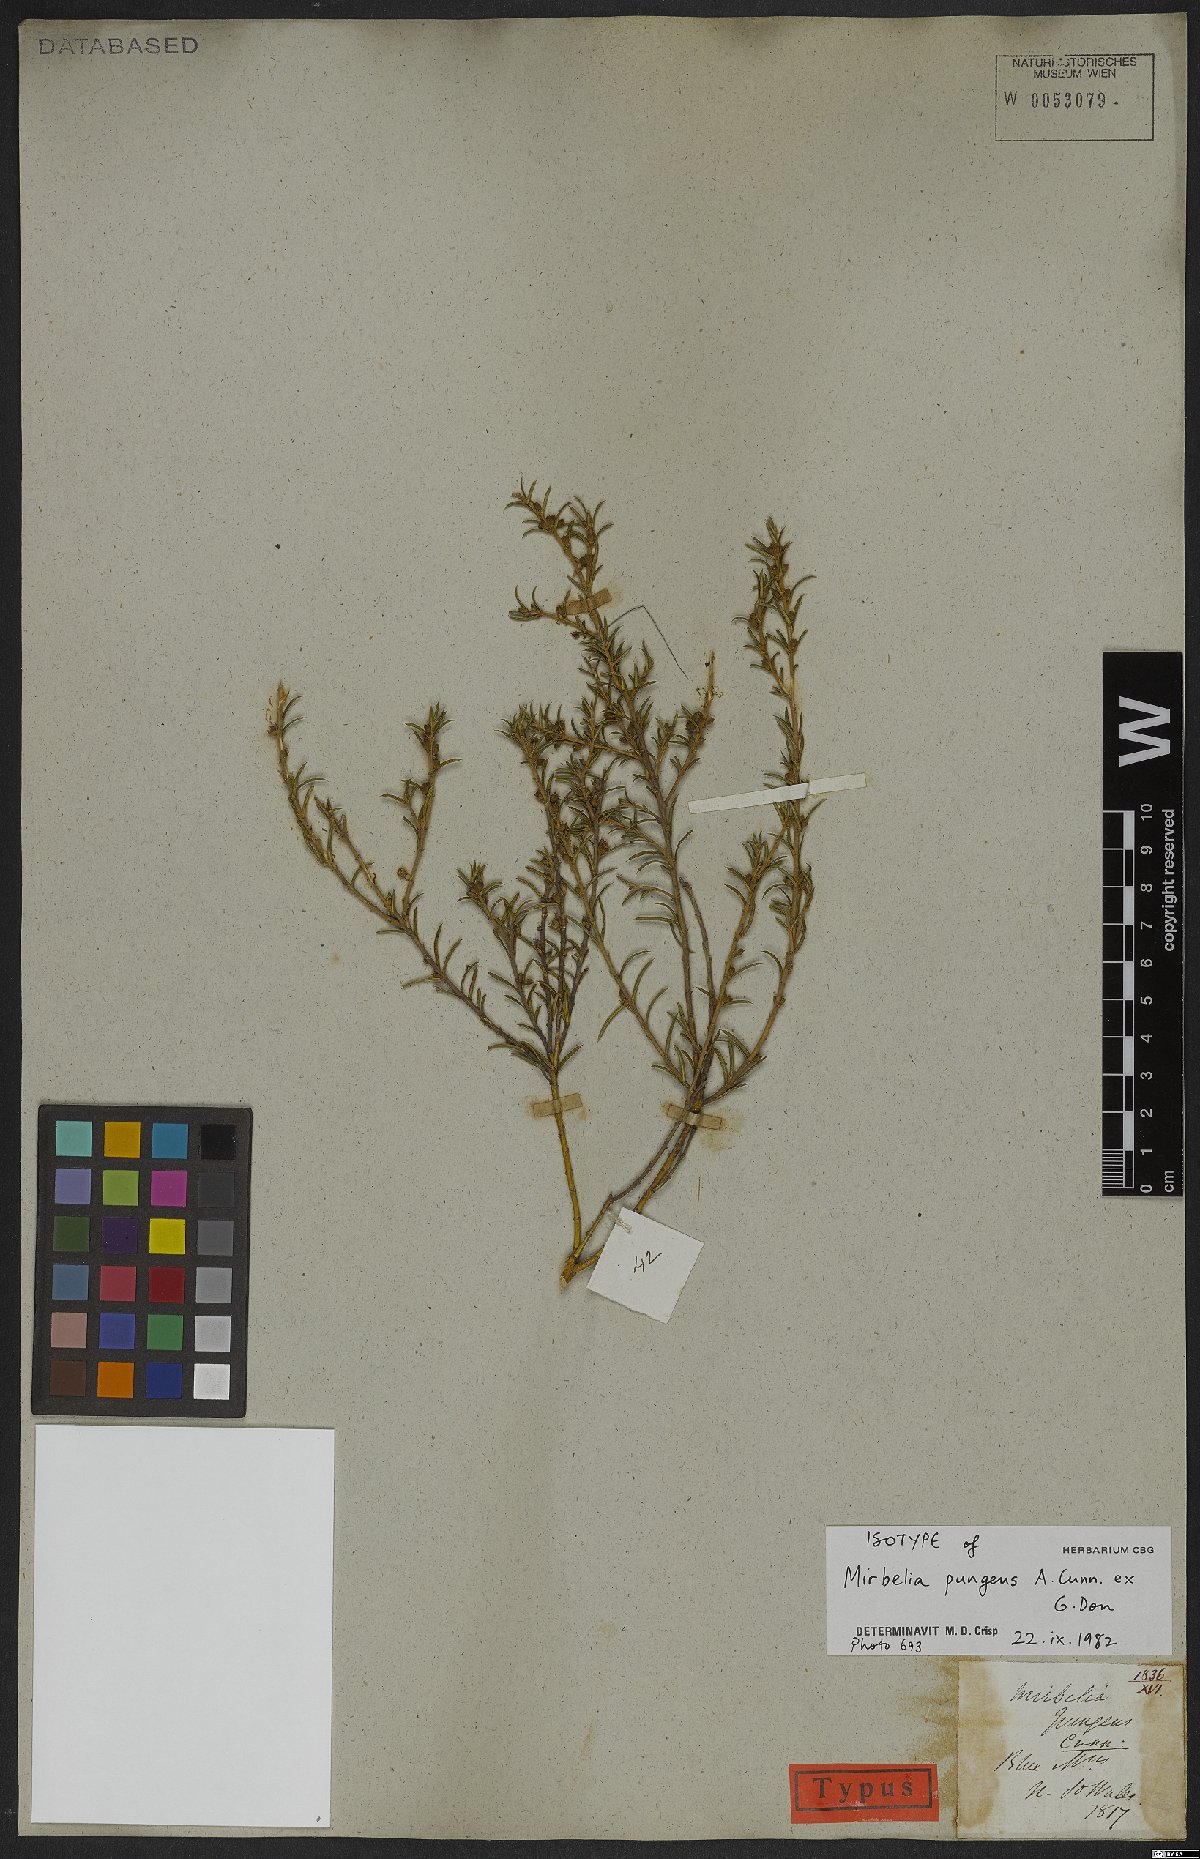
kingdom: Plantae
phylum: Tracheophyta
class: Magnoliopsida
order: Fabales
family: Fabaceae
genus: Mirbelia
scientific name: Mirbelia pungens
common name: Prickly mirbelia
